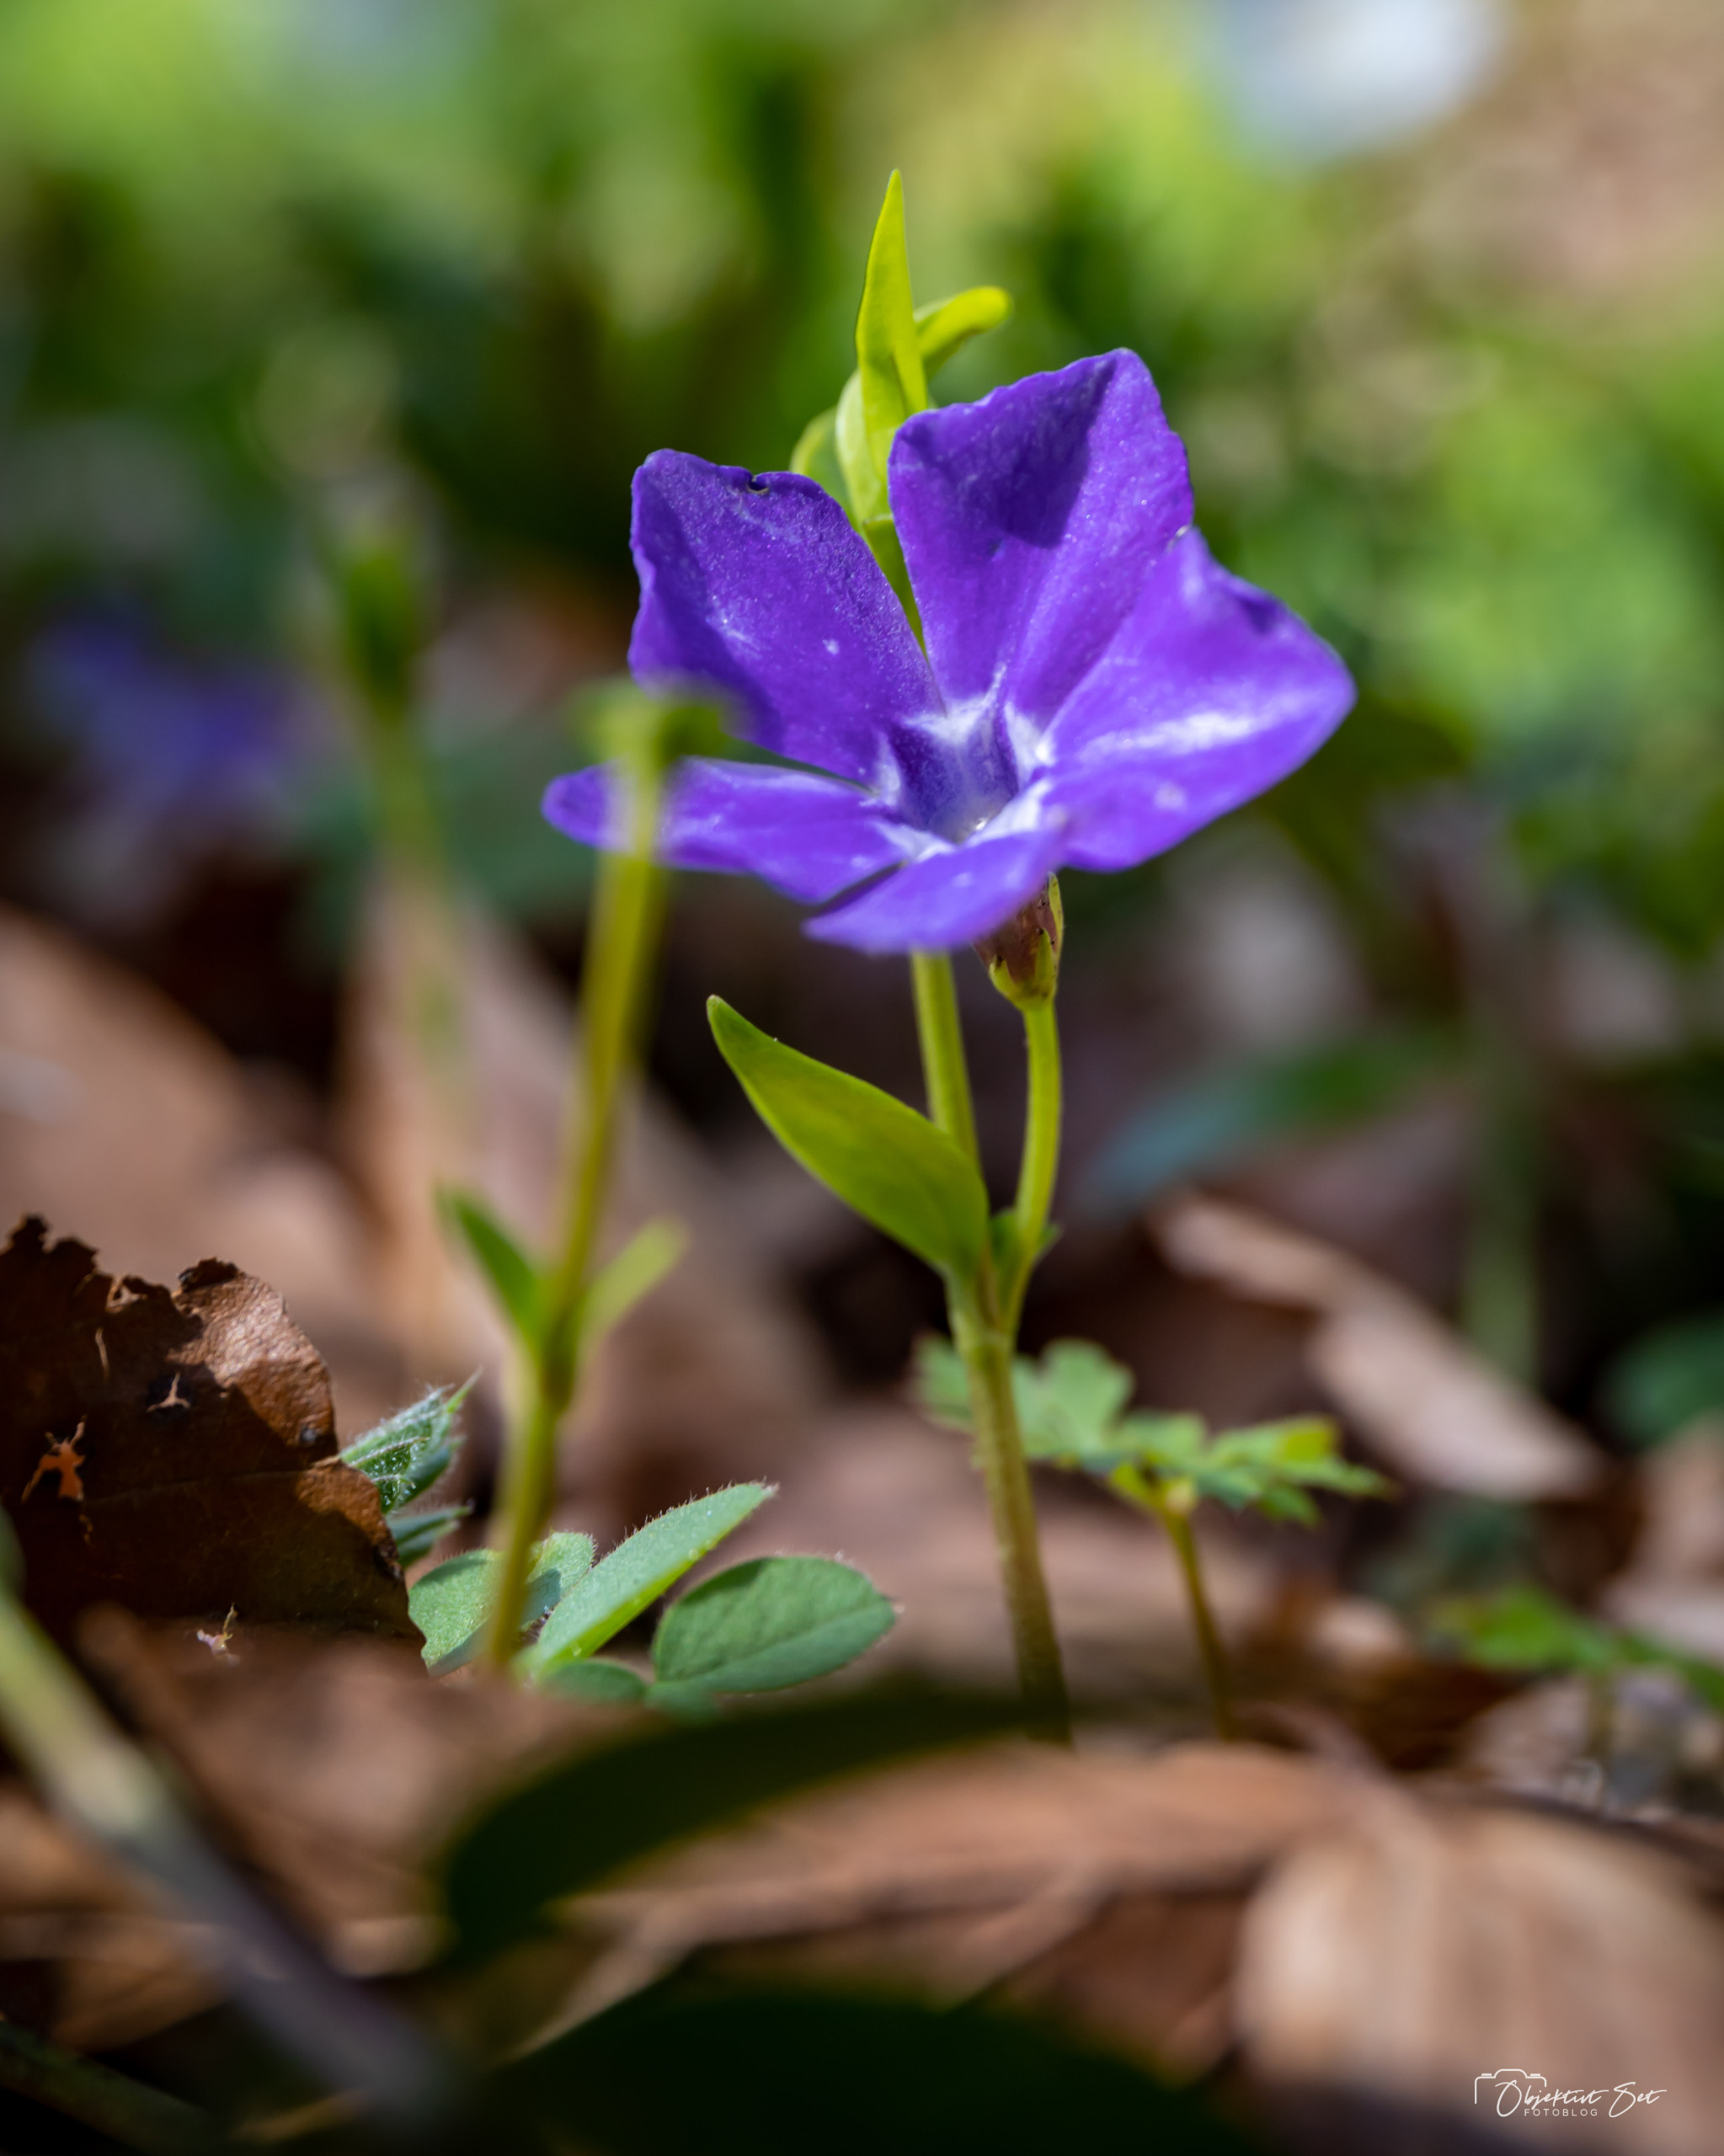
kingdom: Plantae
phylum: Tracheophyta
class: Magnoliopsida
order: Gentianales
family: Apocynaceae
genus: Vinca
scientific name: Vinca minor
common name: Liden singrøn
